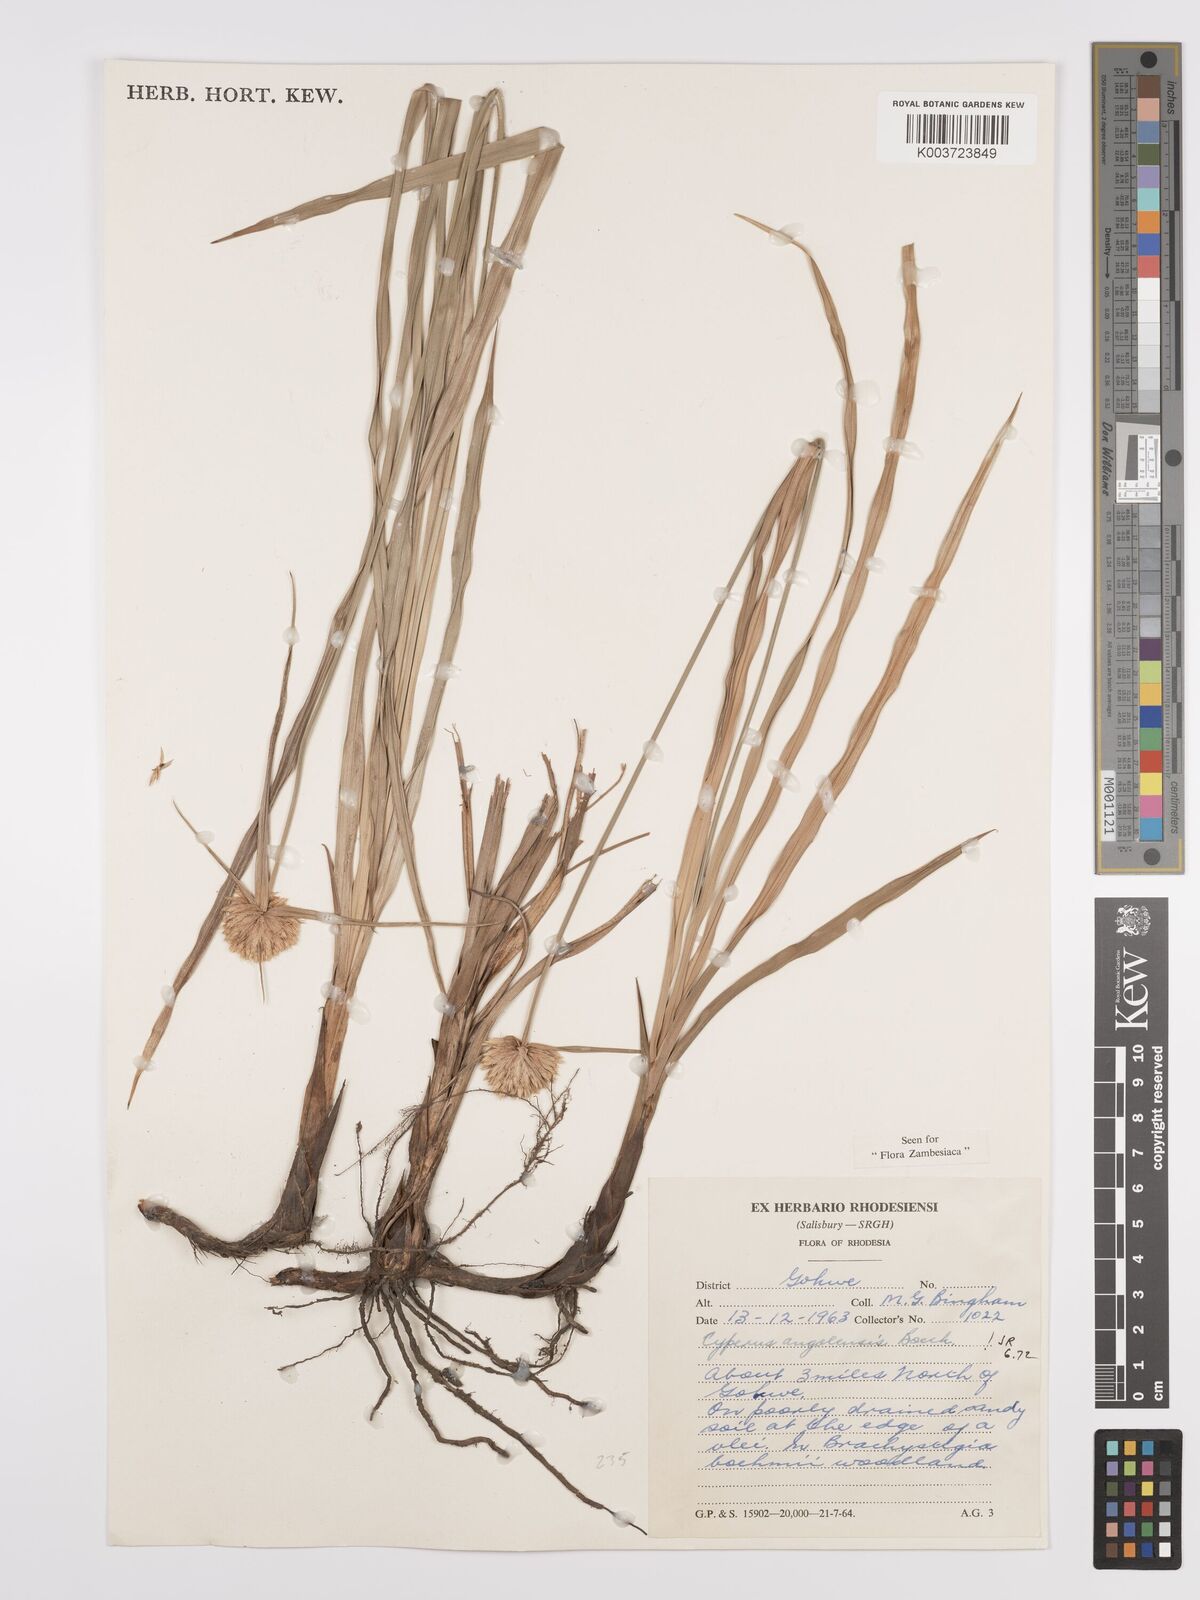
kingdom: Plantae
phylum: Tracheophyta
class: Liliopsida
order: Poales
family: Cyperaceae
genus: Cyperus
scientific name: Cyperus angolensis
